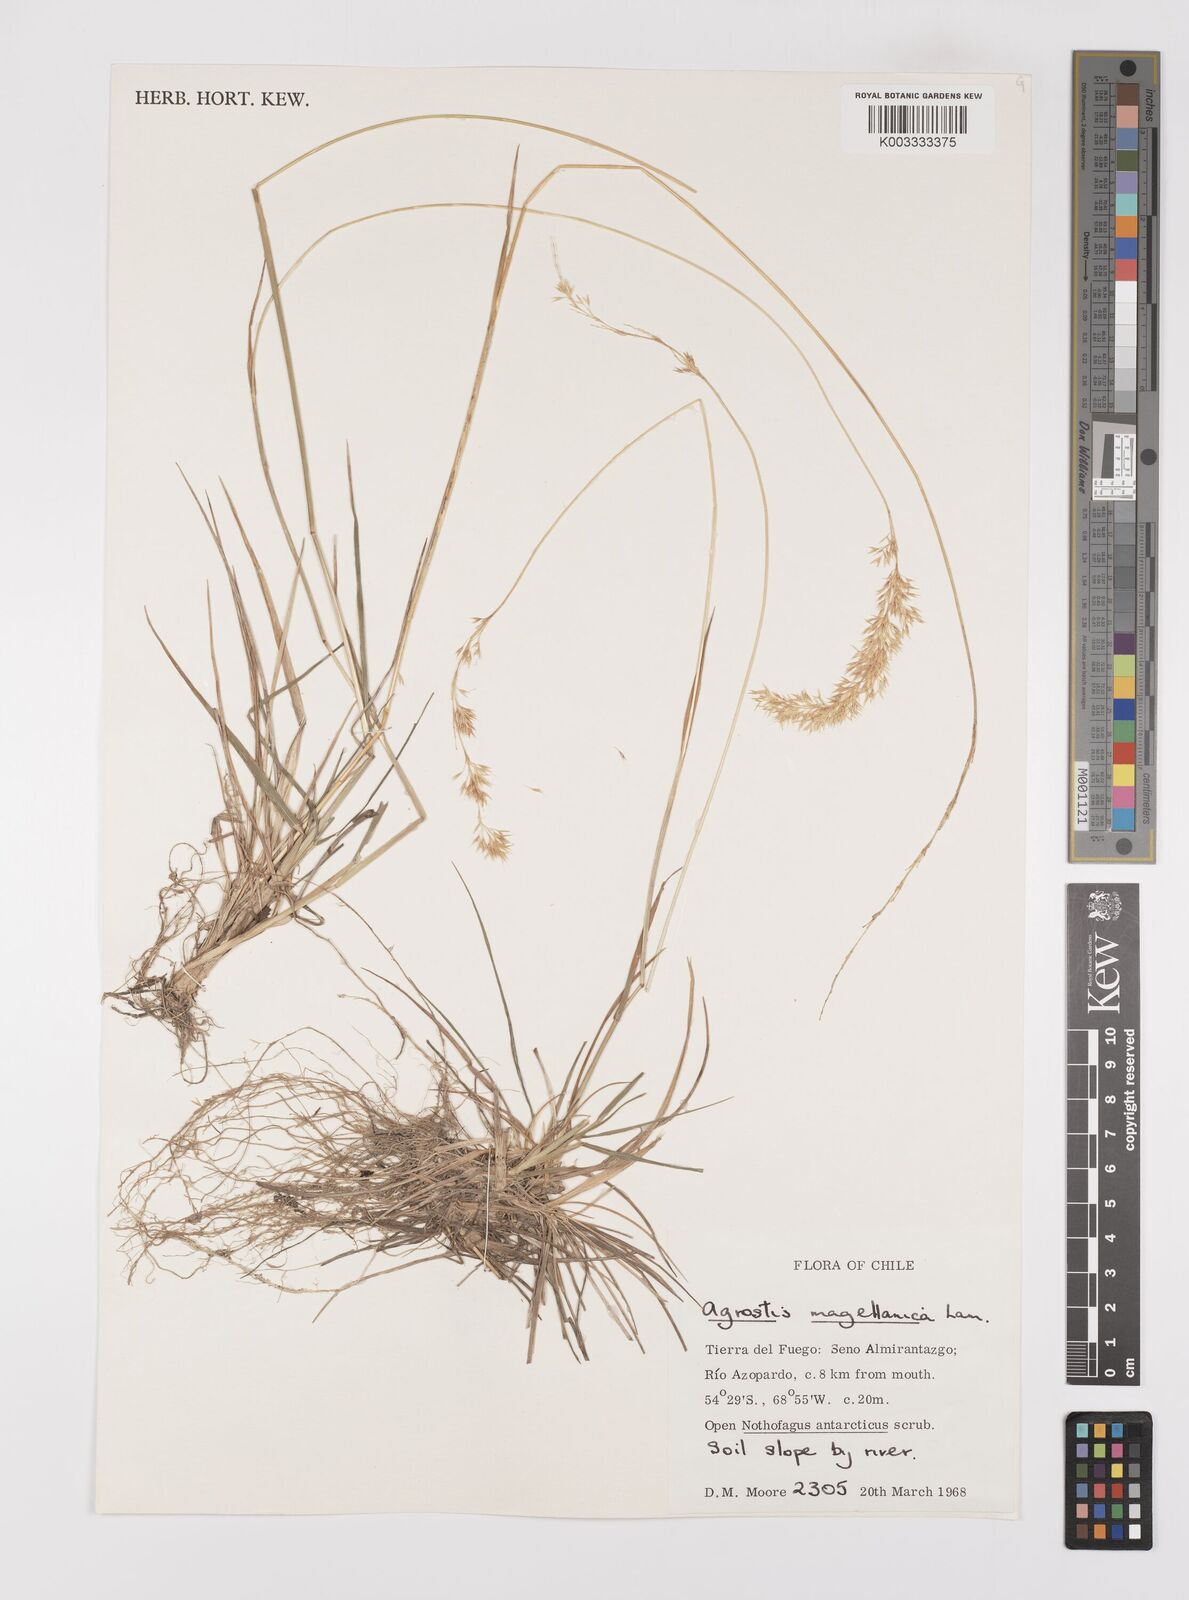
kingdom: Plantae
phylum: Tracheophyta
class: Liliopsida
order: Poales
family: Poaceae
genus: Polypogon
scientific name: Polypogon magellanicus
